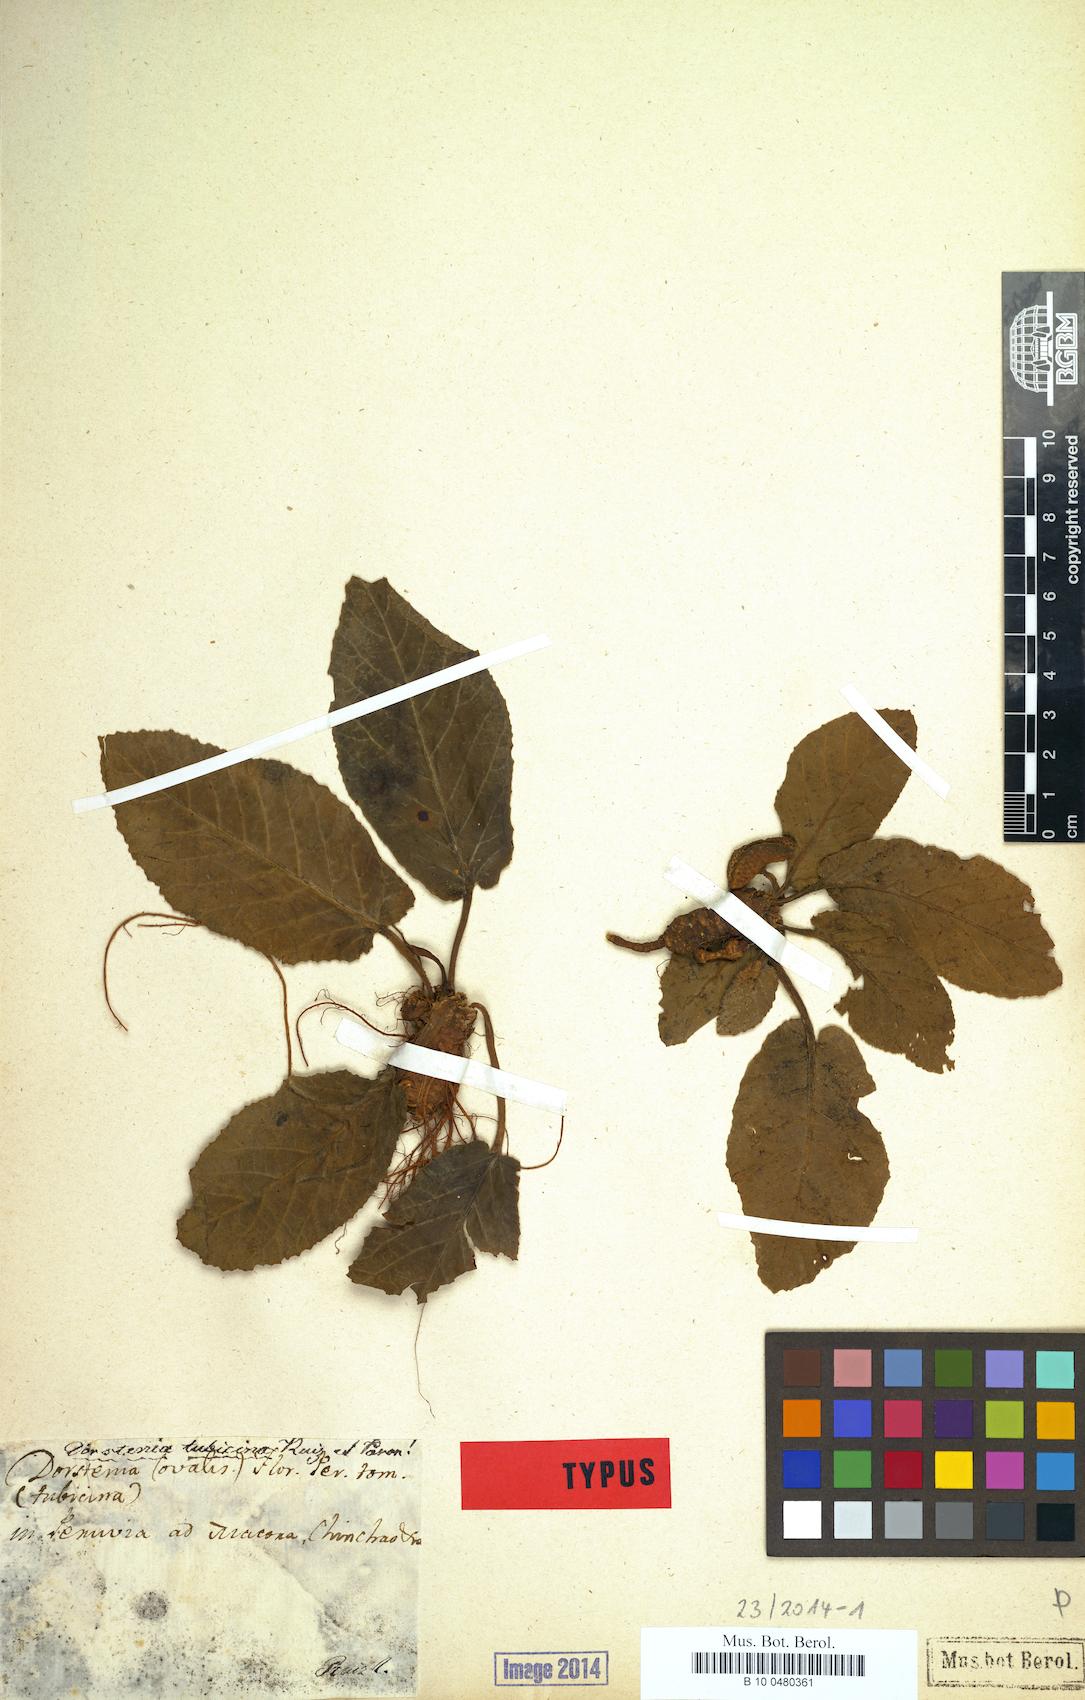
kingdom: Plantae
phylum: Tracheophyta
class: Magnoliopsida
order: Rosales
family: Moraceae
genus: Hijmania
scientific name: Hijmania turbinata
